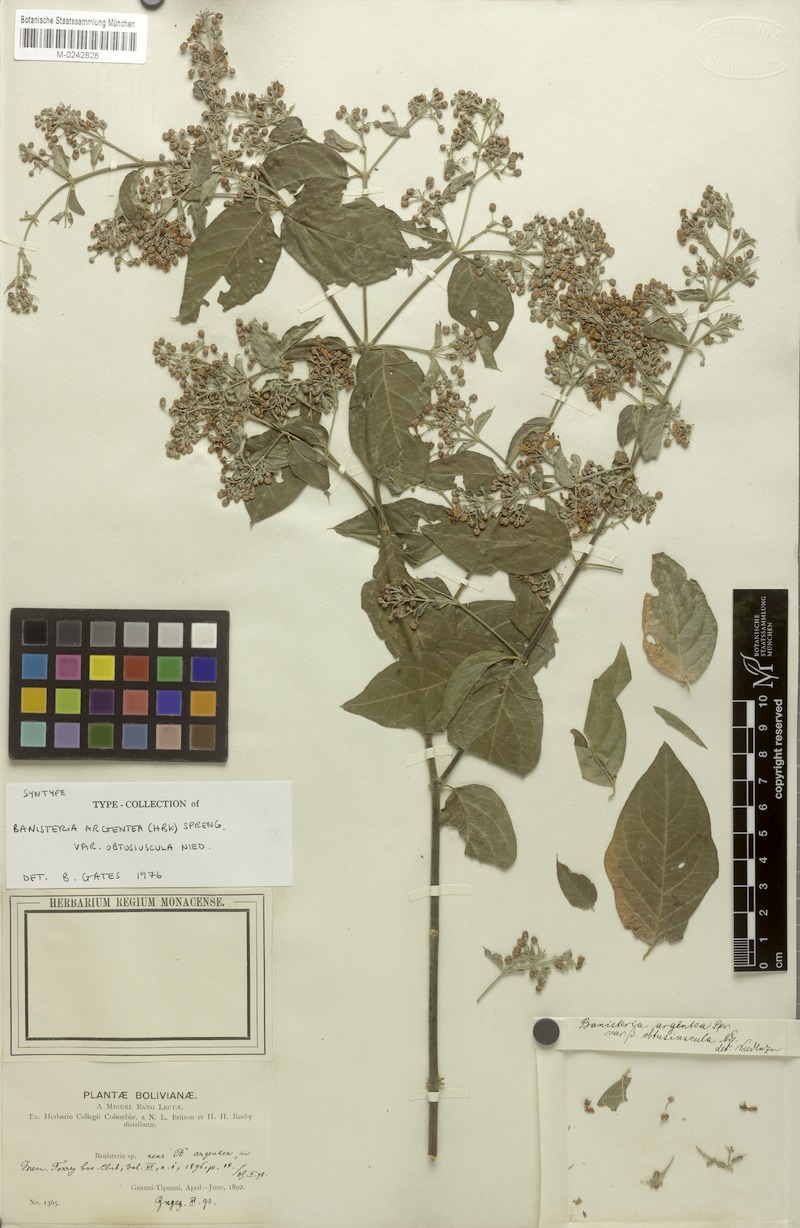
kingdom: Plantae
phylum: Tracheophyta
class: Magnoliopsida
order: Malpighiales
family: Malpighiaceae
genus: Banisteriopsis
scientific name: Banisteriopsis muricata
